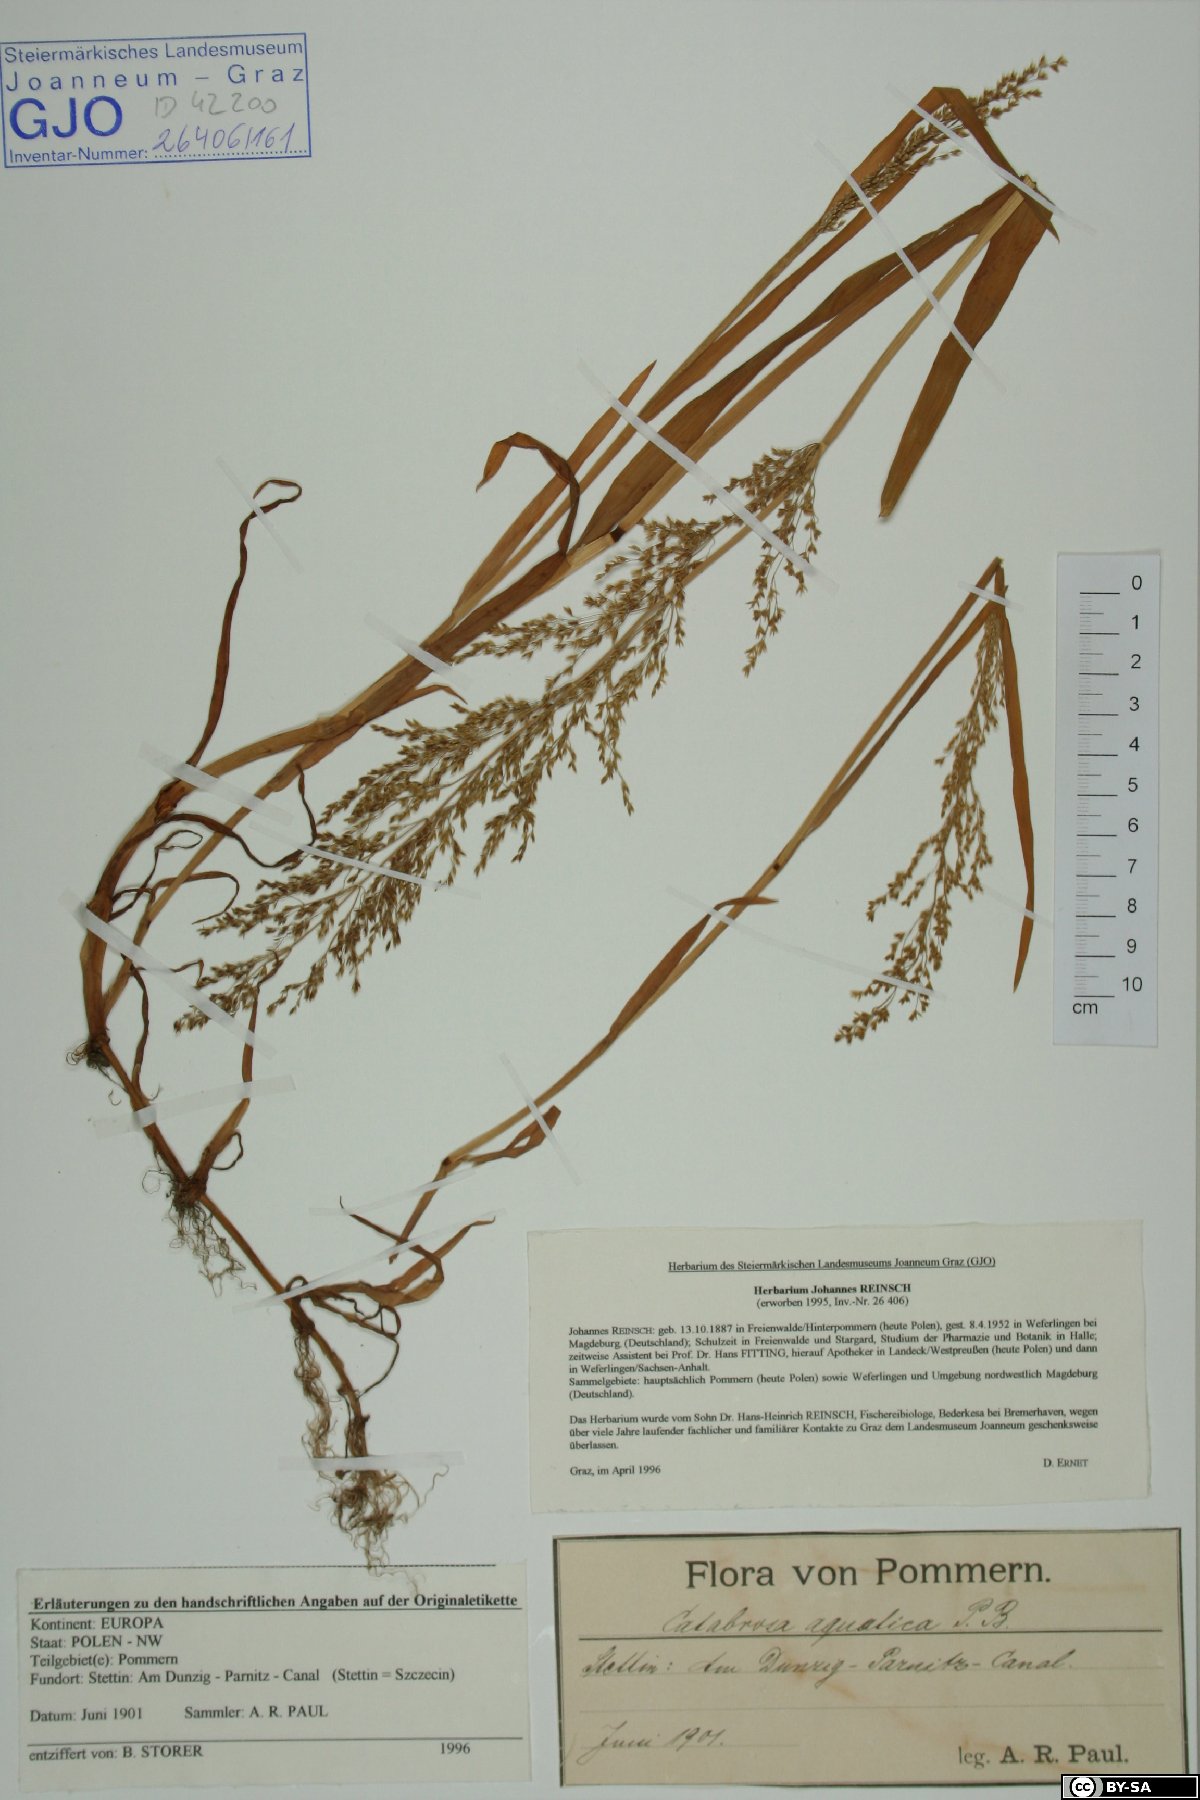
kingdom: Plantae
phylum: Tracheophyta
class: Liliopsida
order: Poales
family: Poaceae
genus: Catabrosa
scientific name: Catabrosa aquatica
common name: Whorl-grass
